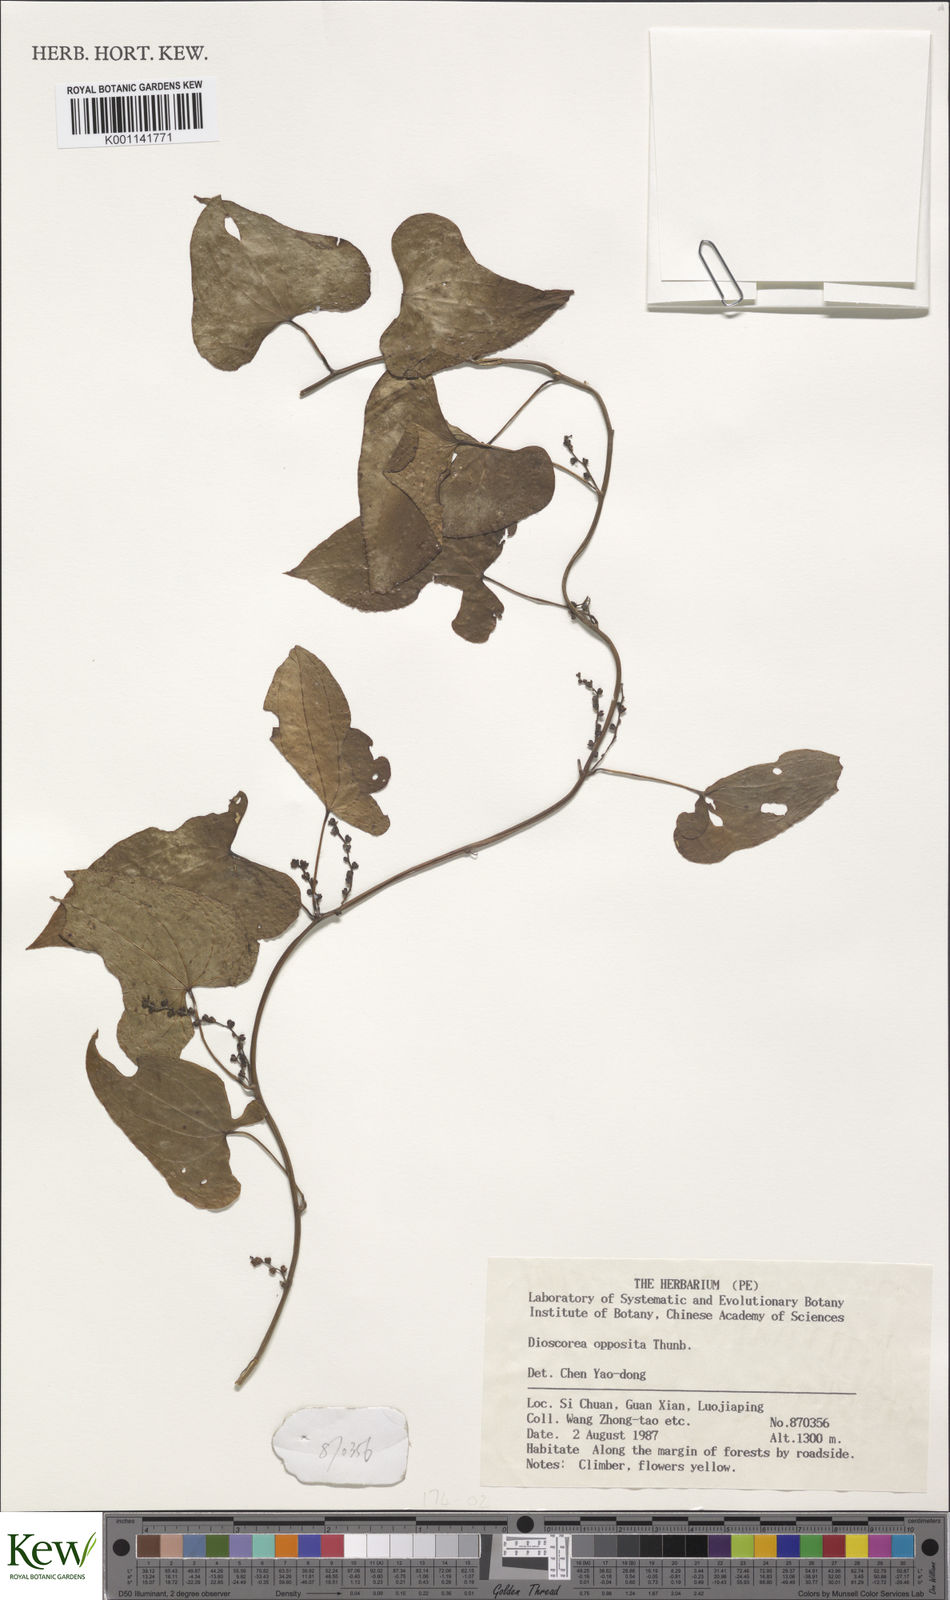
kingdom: Plantae
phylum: Tracheophyta
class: Liliopsida
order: Dioscoreales
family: Dioscoreaceae
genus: Dioscorea
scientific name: Dioscorea oppositifolia
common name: Chinese yam
